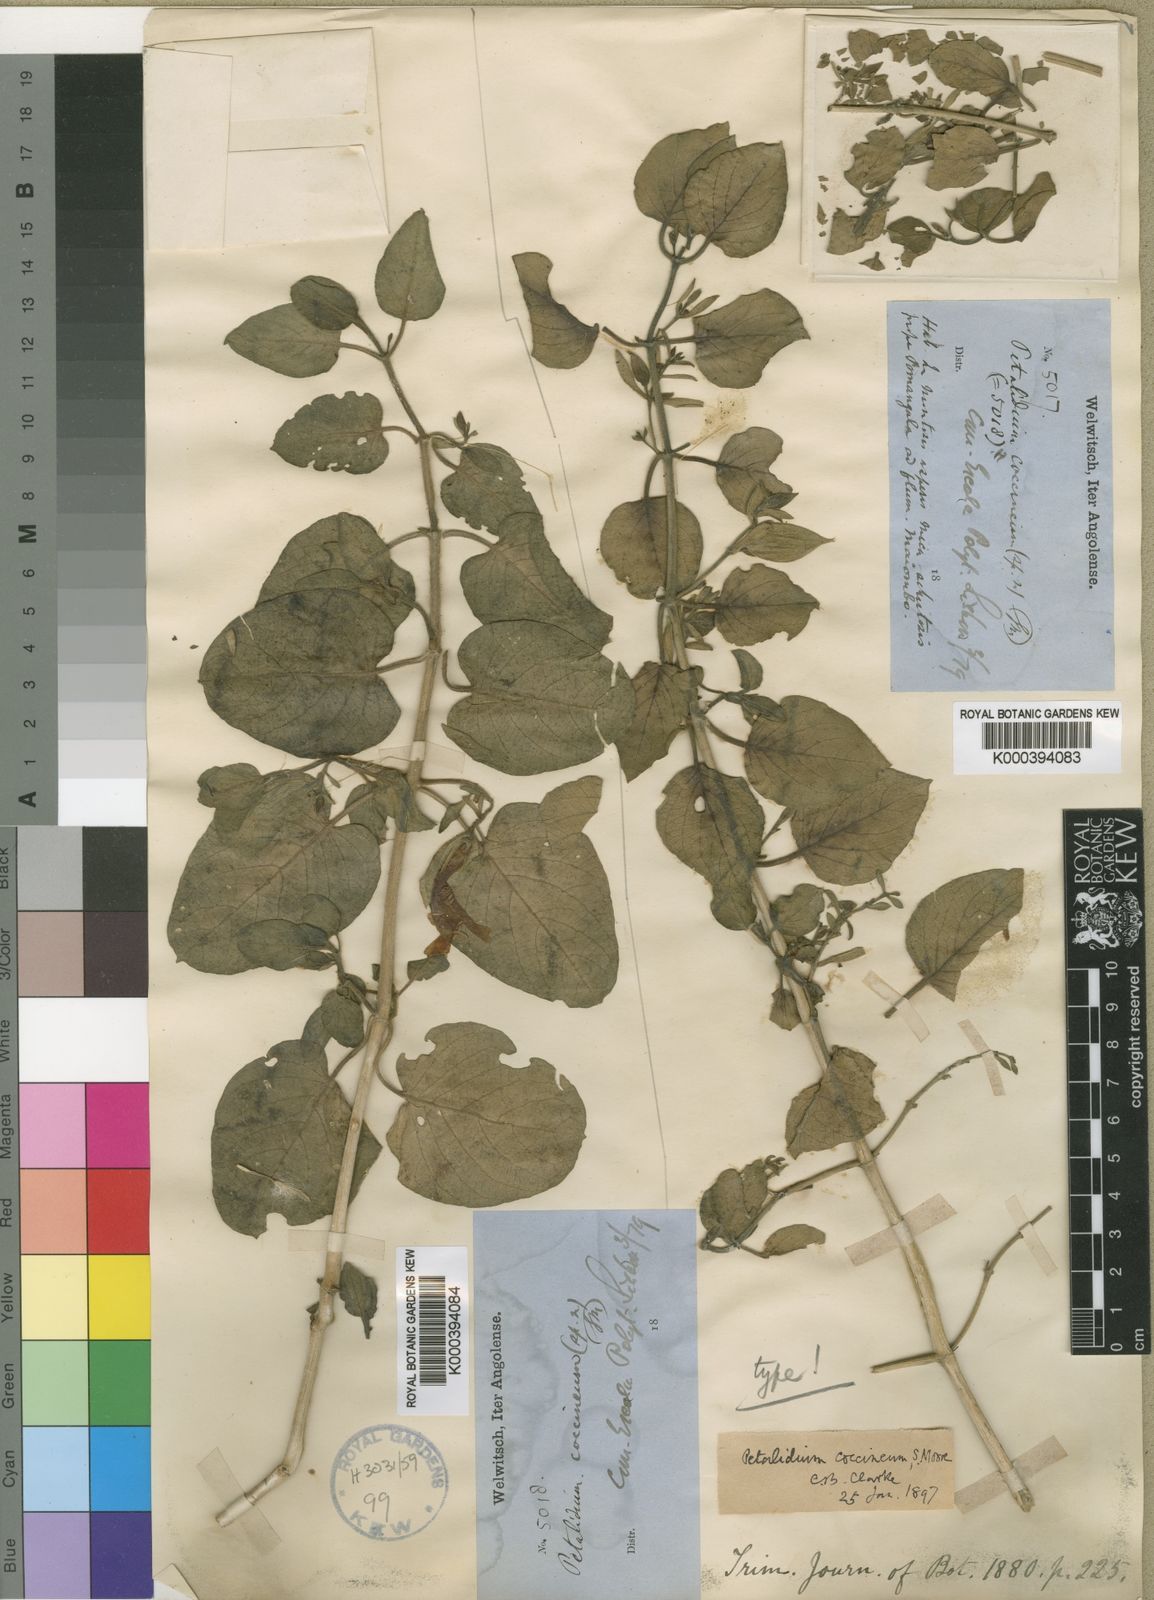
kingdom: Plantae
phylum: Tracheophyta
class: Magnoliopsida
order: Lamiales
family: Acanthaceae
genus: Petalidium
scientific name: Petalidium coccineum
